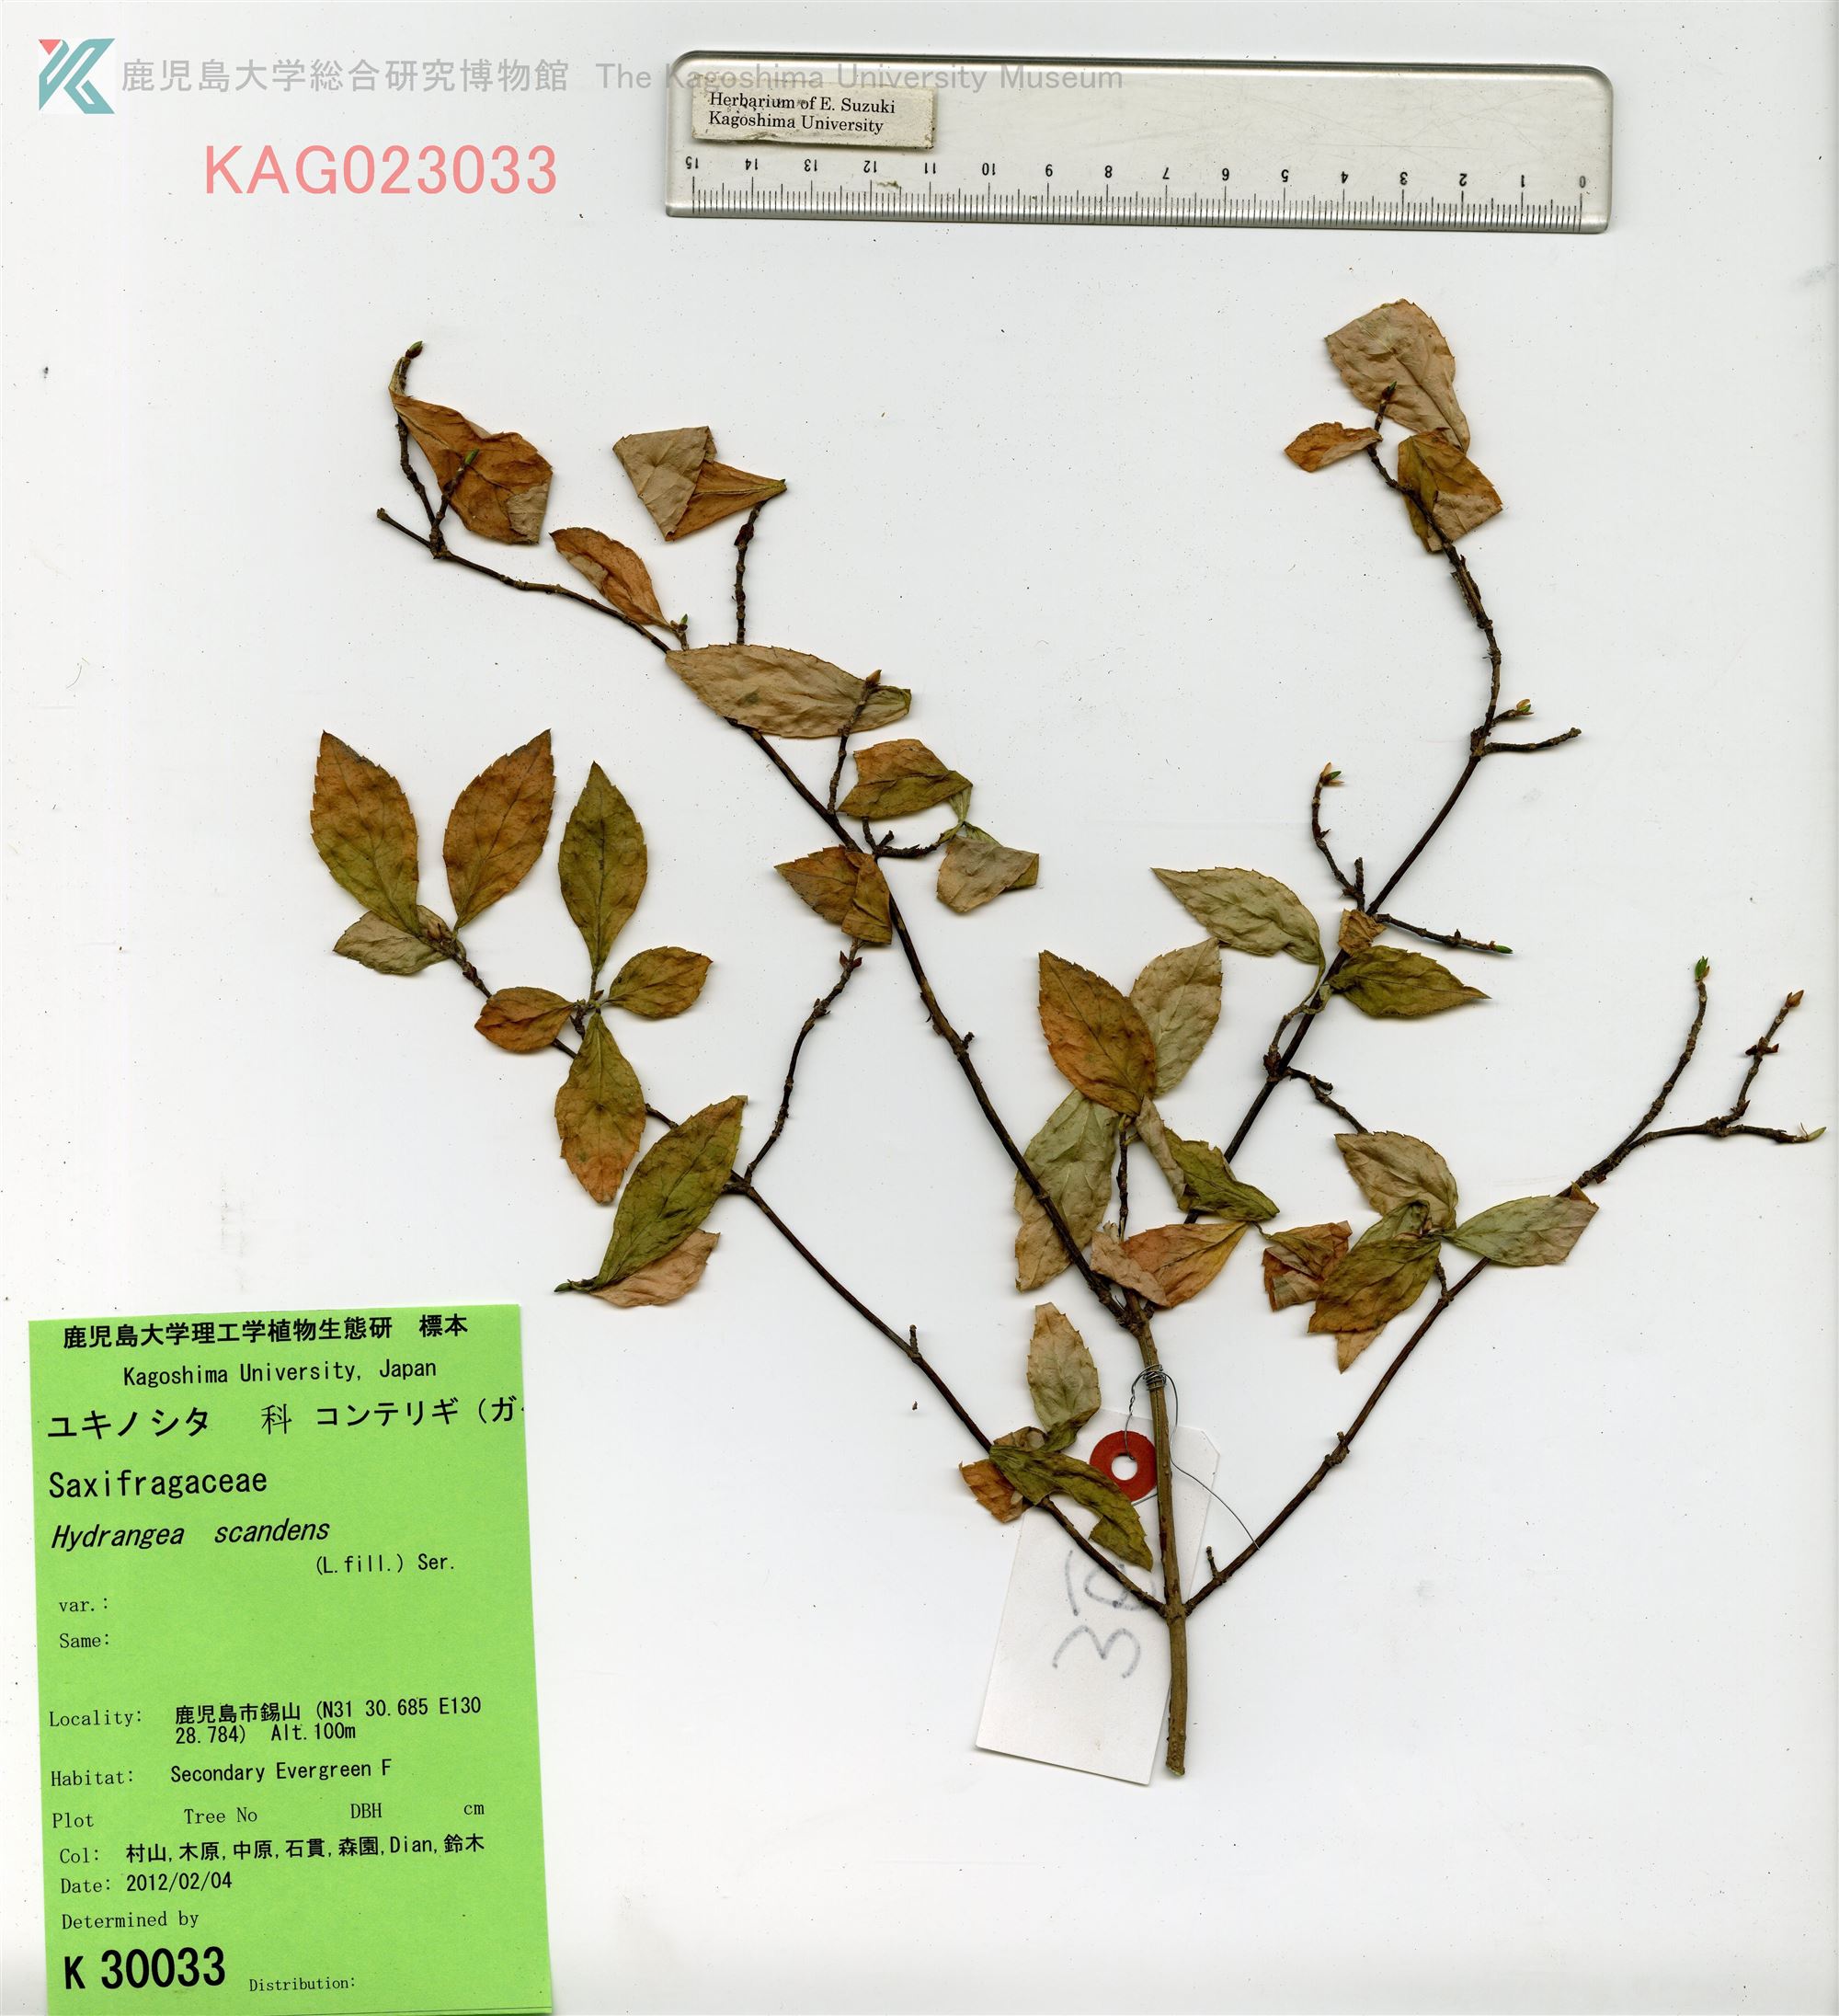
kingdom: Plantae
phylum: Tracheophyta
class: Magnoliopsida
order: Cornales
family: Hydrangeaceae
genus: Hydrangea
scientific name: Hydrangea scandens
